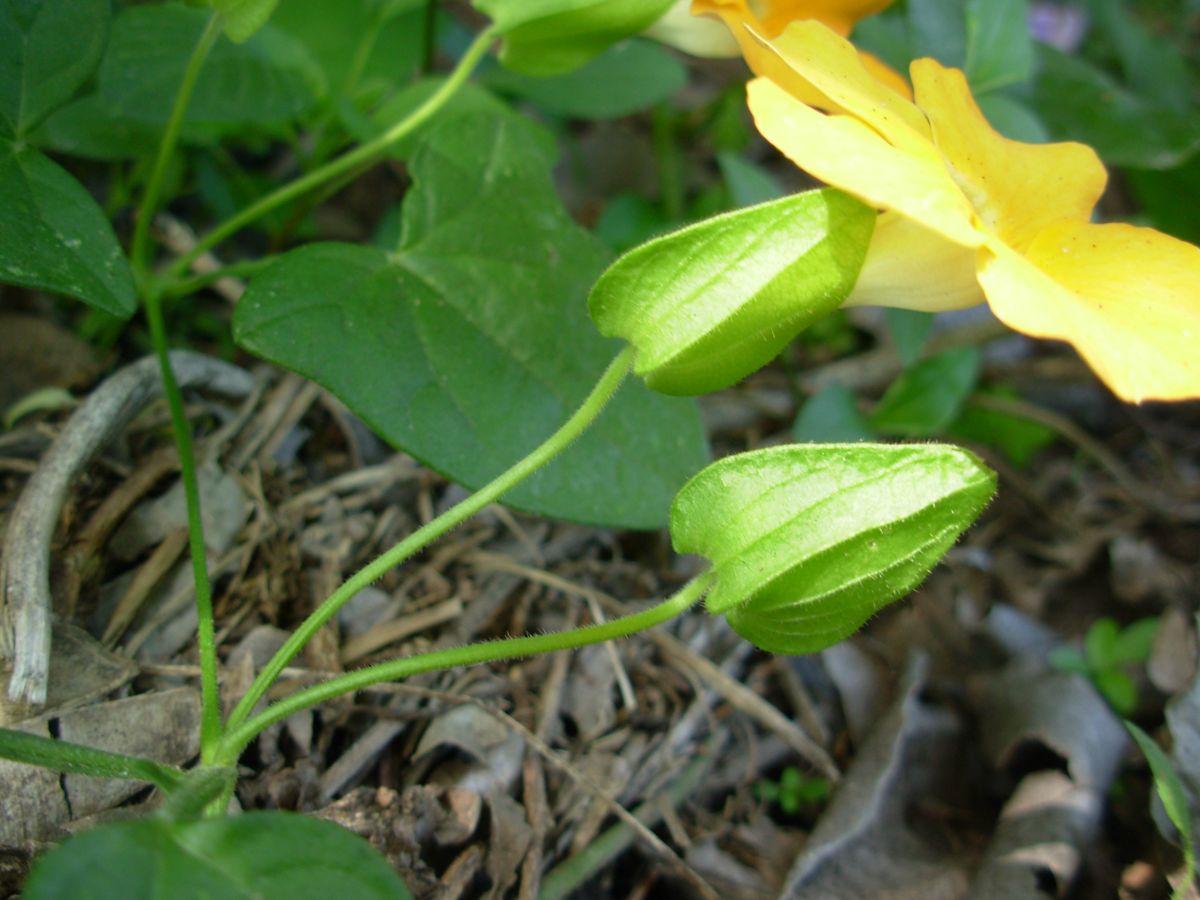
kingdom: Plantae
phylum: Tracheophyta
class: Magnoliopsida
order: Lamiales
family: Acanthaceae
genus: Thunbergia
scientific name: Thunbergia alata
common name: Blackeyed susan vine
